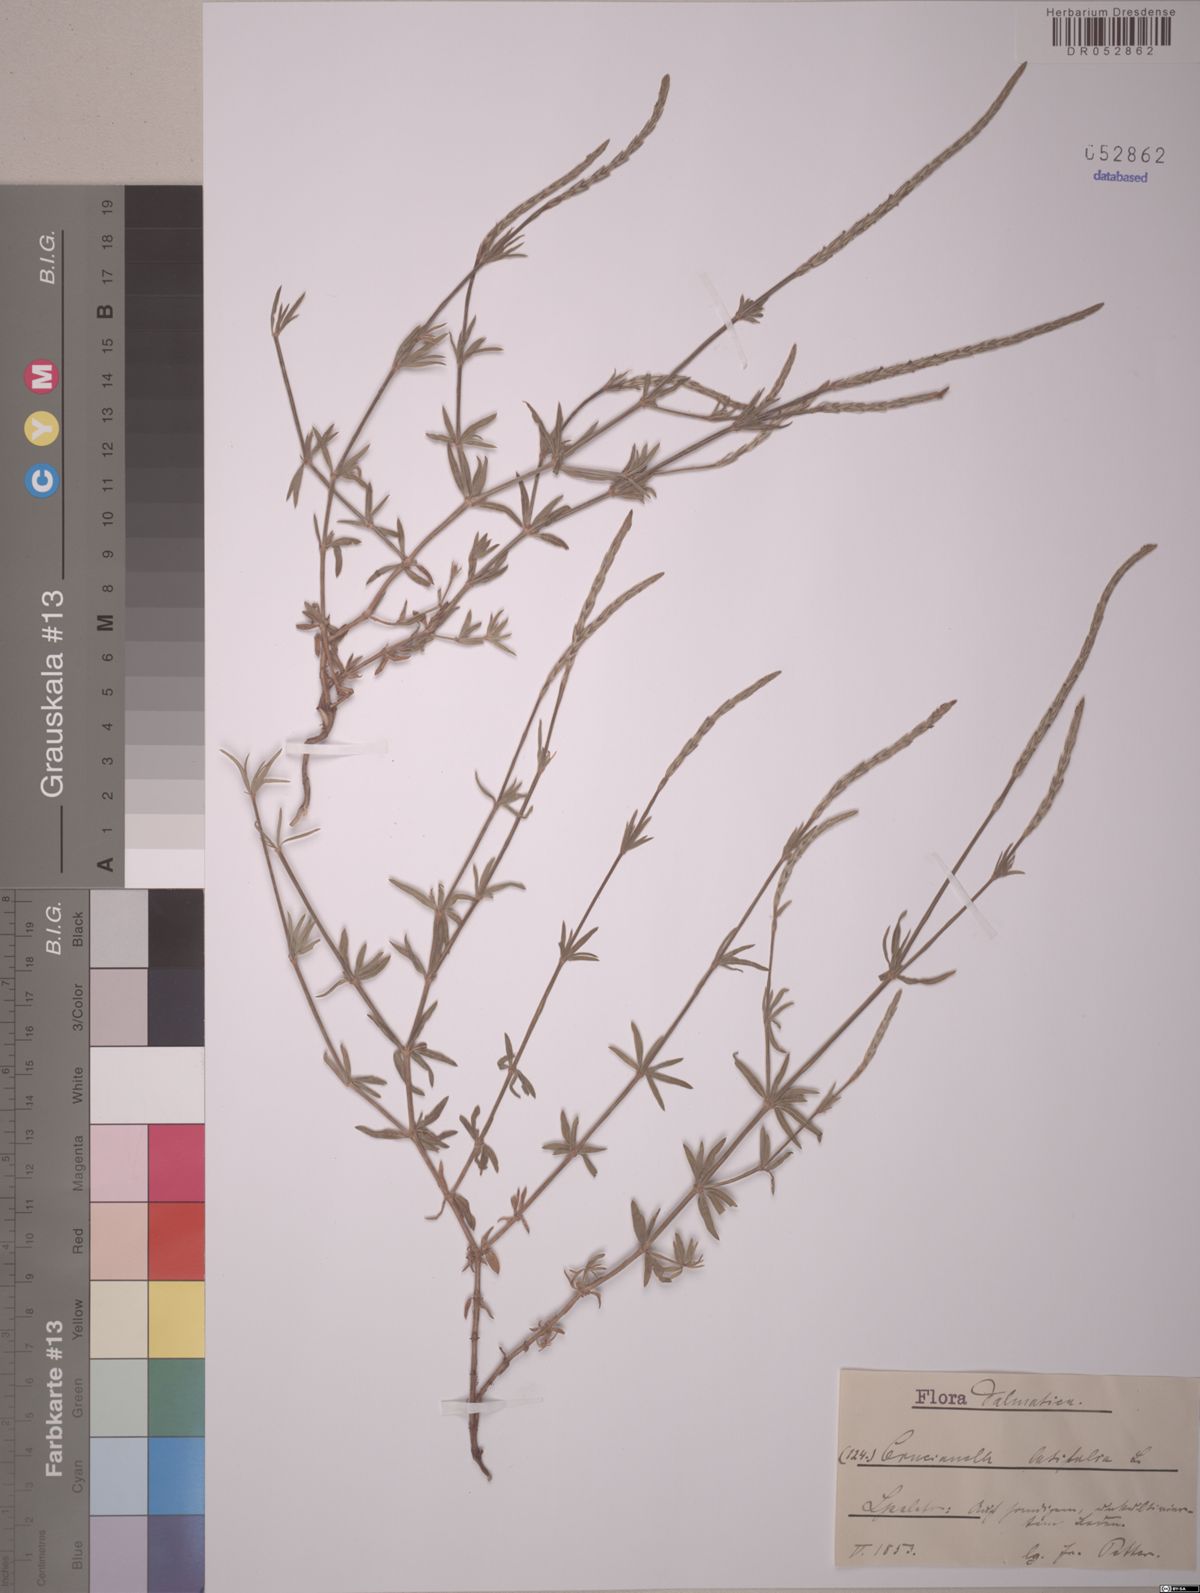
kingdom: Plantae
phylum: Tracheophyta
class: Magnoliopsida
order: Gentianales
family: Rubiaceae
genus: Crucianella
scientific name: Crucianella latifolia
